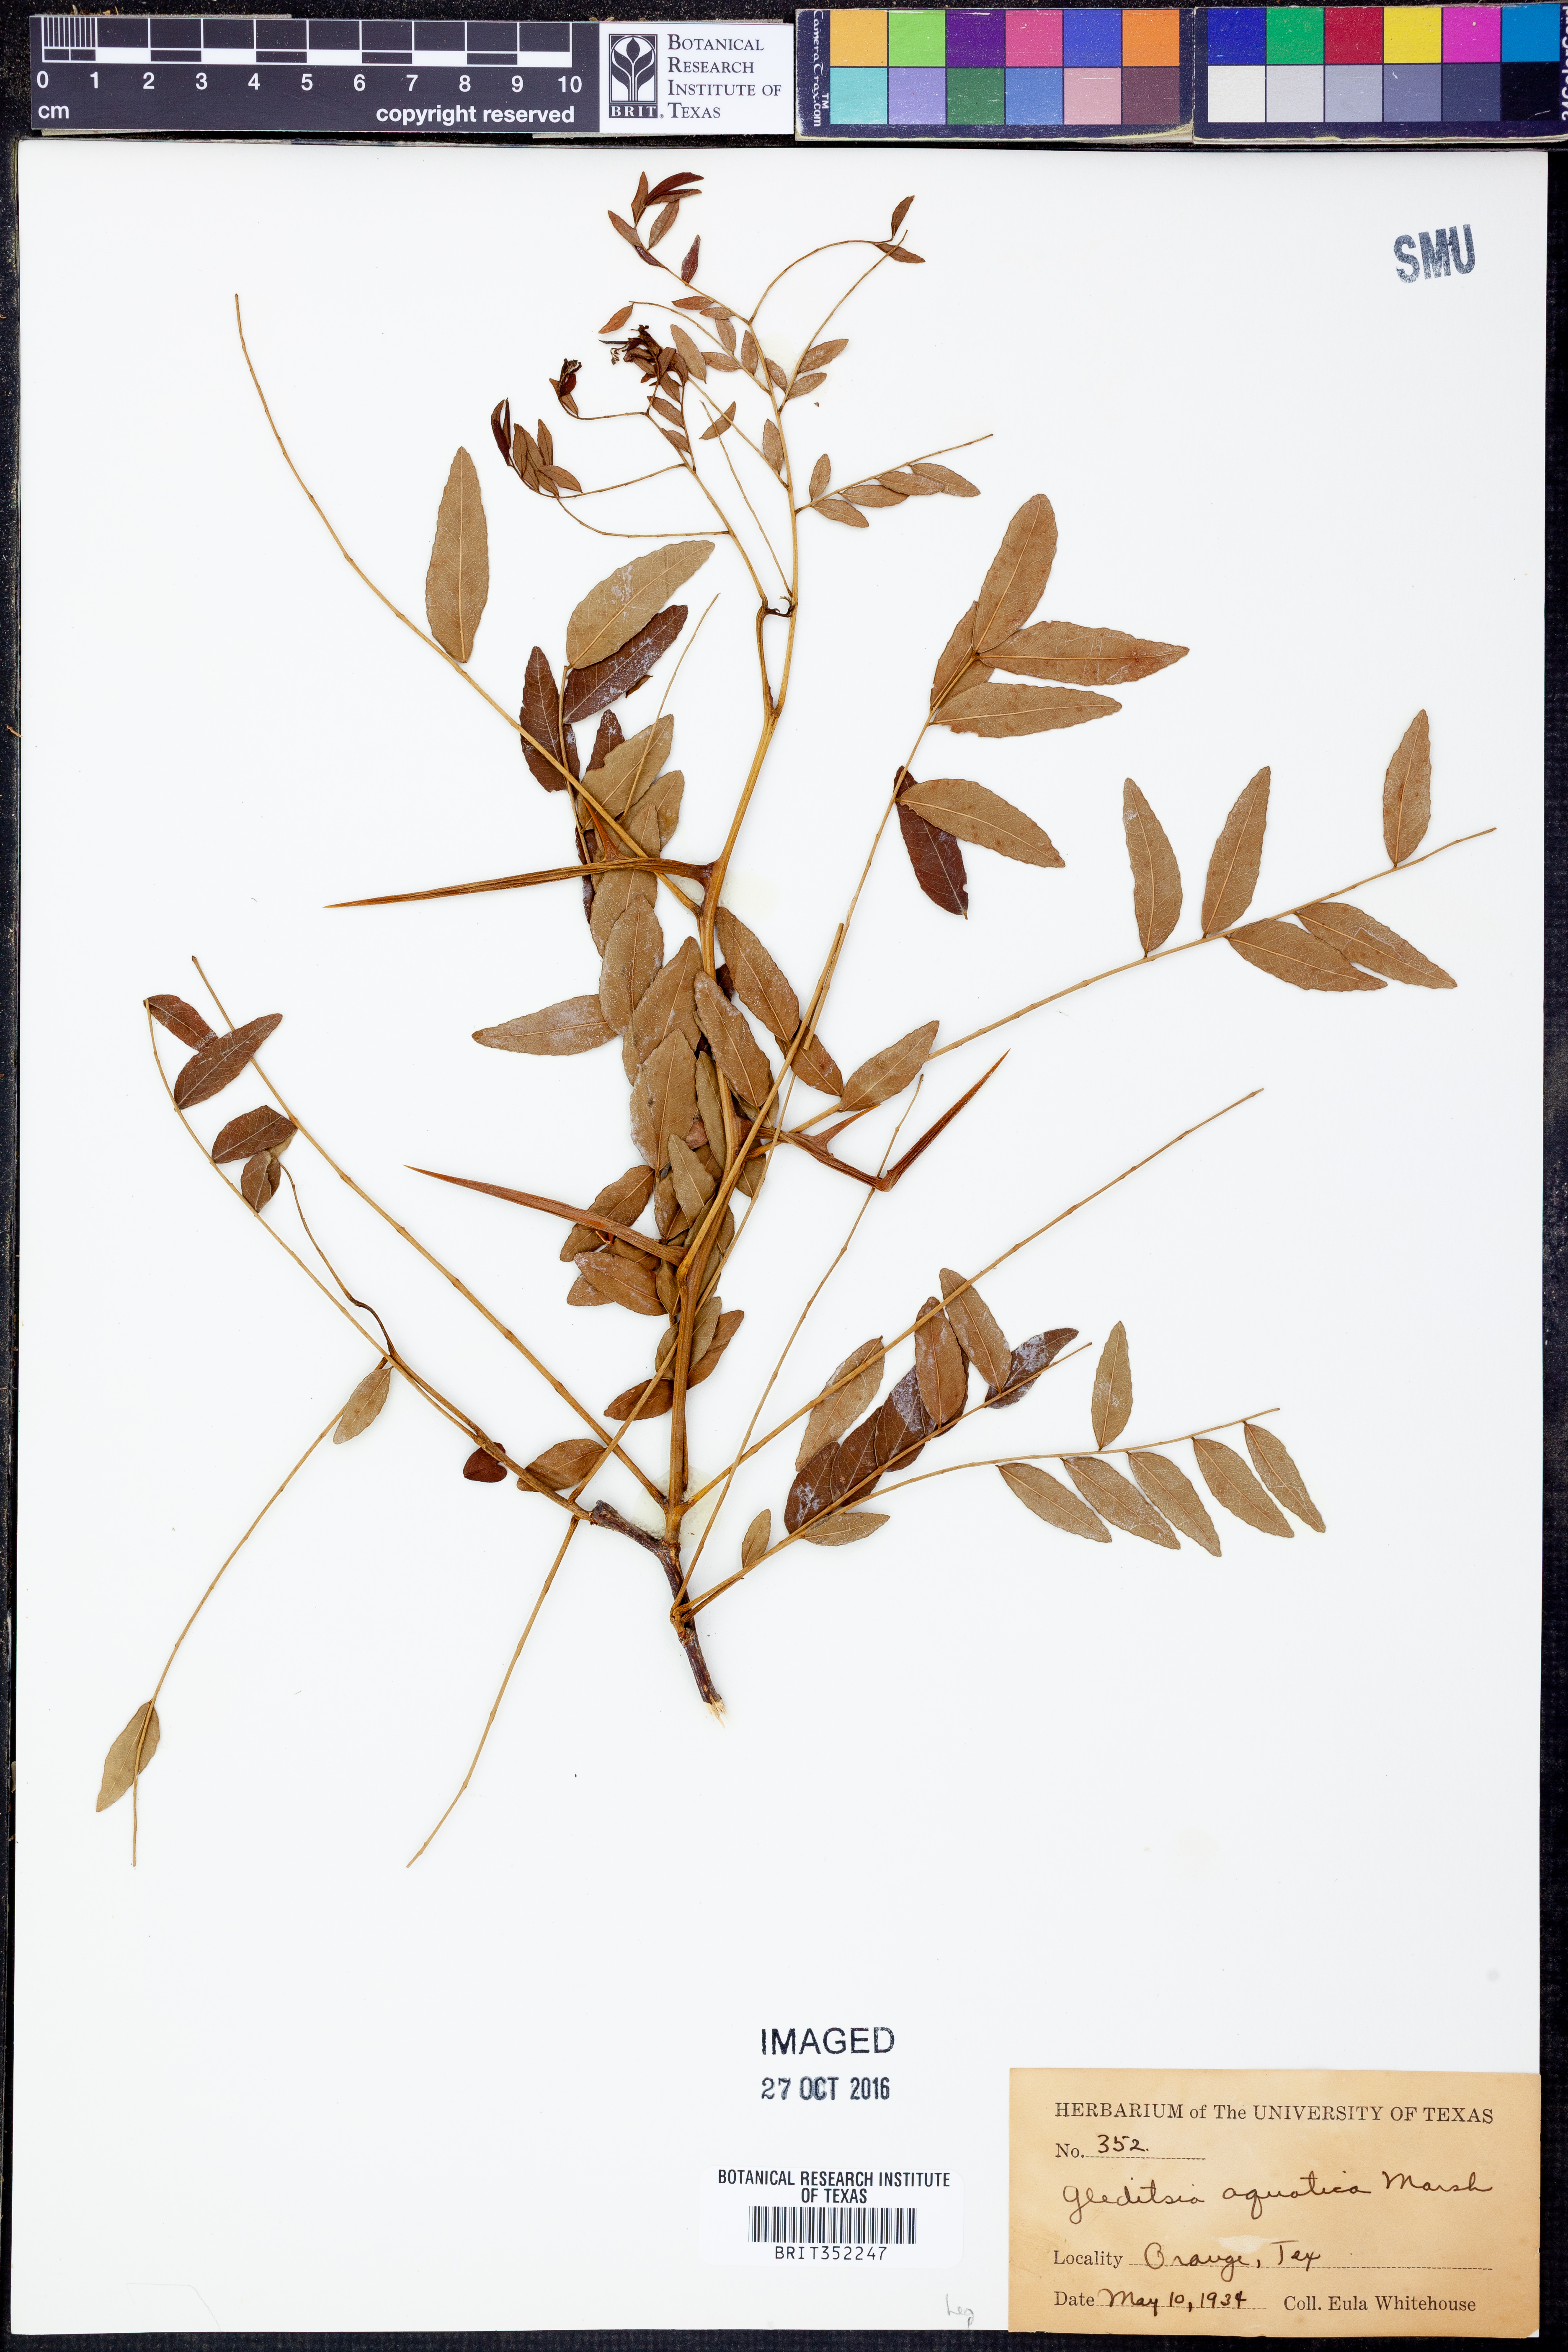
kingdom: Plantae
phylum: Tracheophyta
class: Magnoliopsida
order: Fabales
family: Fabaceae
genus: Gleditsia
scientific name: Gleditsia aquatica
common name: Swamp-locust
